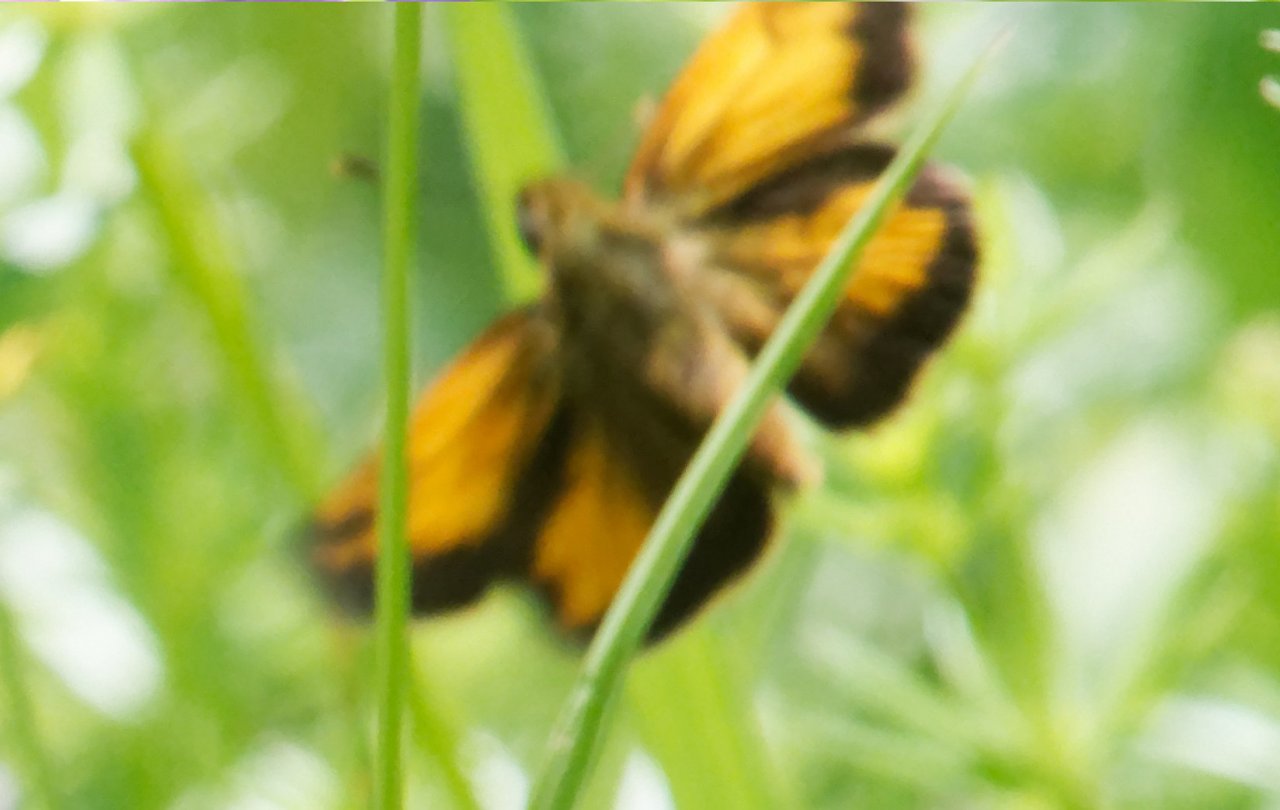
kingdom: Animalia
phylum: Arthropoda
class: Insecta
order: Lepidoptera
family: Hesperiidae
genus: Lon
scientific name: Lon hobomok
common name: Hobomok Skipper
